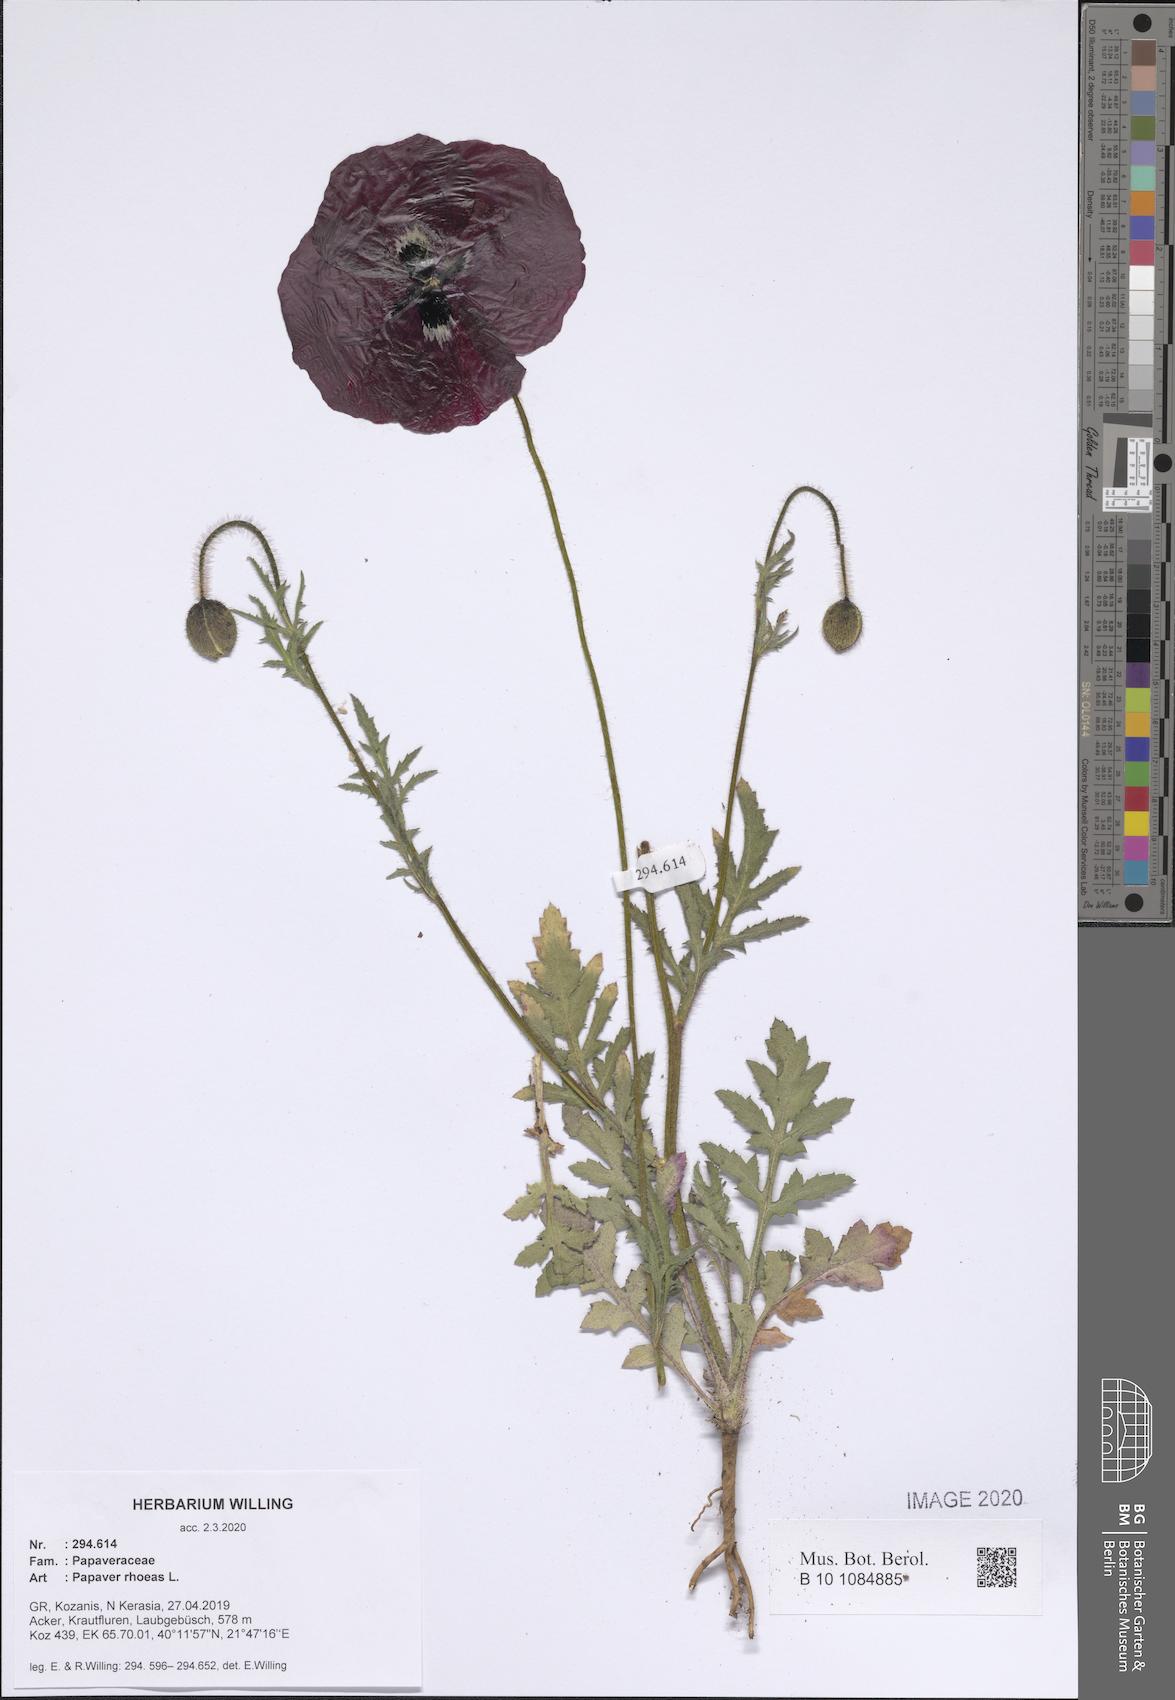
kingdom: Plantae
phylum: Tracheophyta
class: Magnoliopsida
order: Ranunculales
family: Papaveraceae
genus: Papaver
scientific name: Papaver rhoeas
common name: Corn poppy
